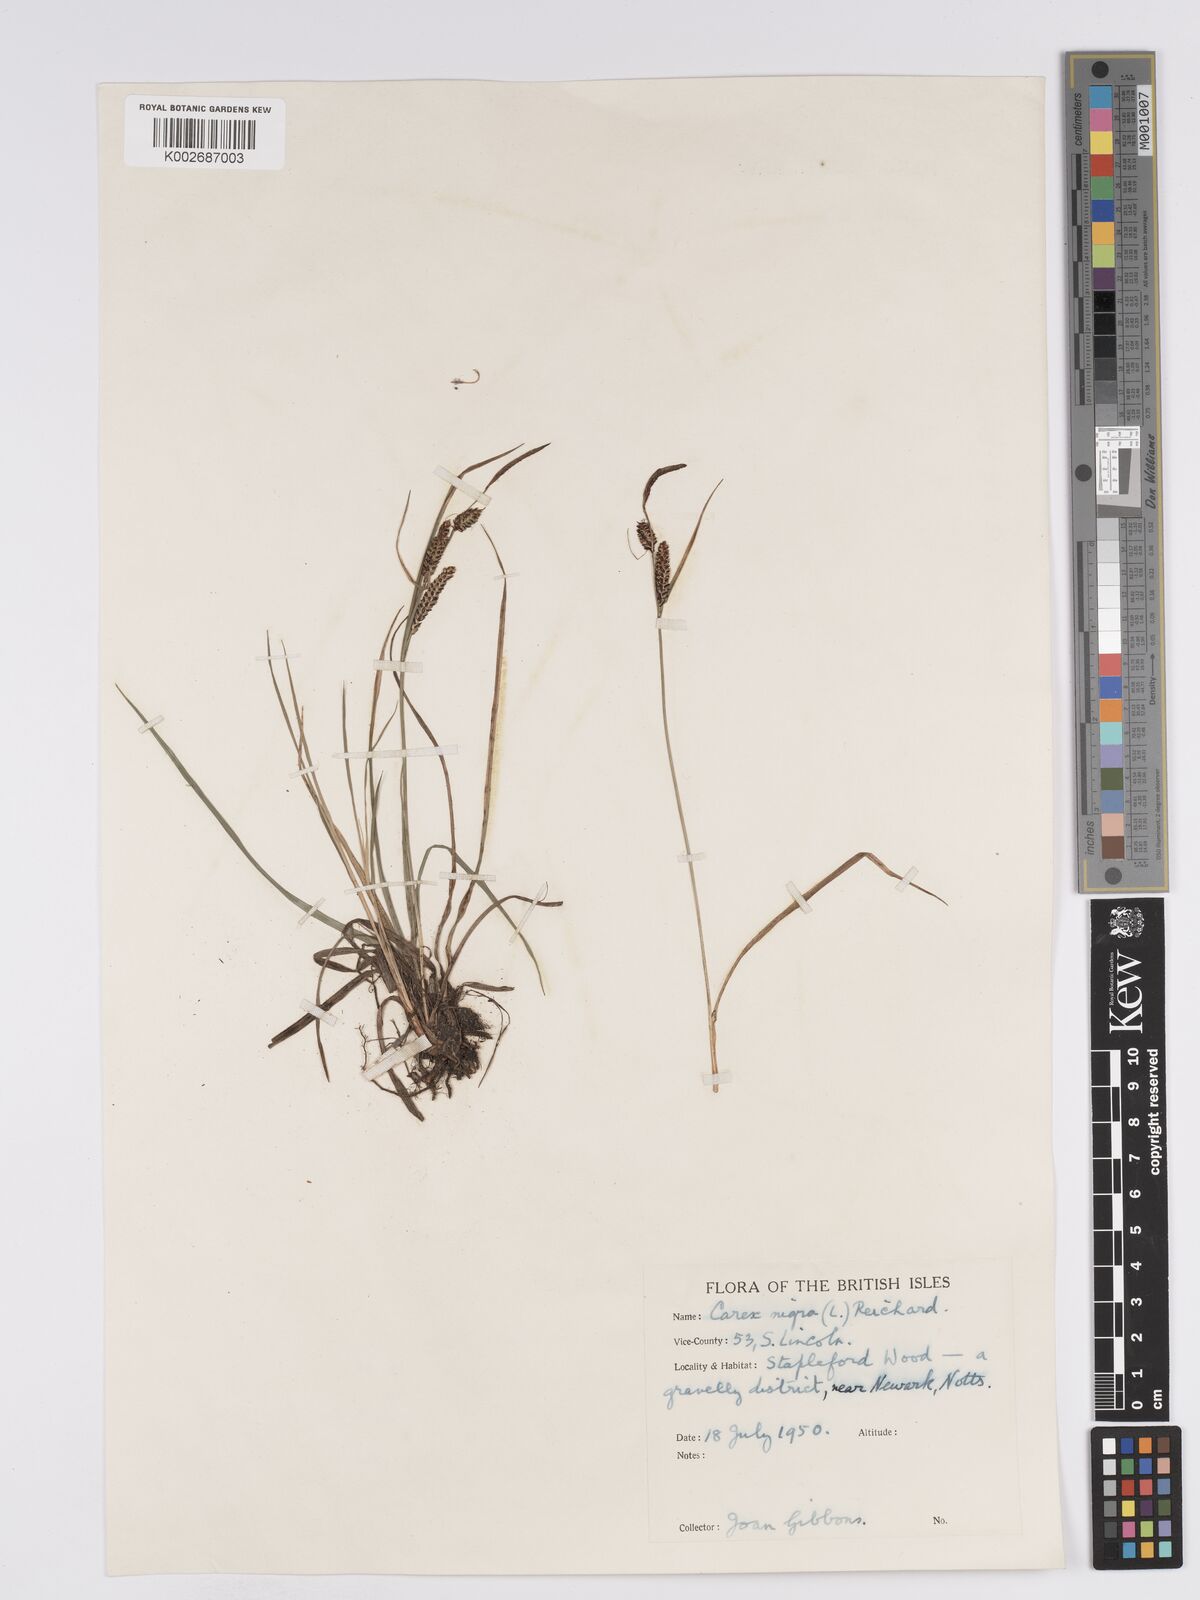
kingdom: Plantae
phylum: Tracheophyta
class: Liliopsida
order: Poales
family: Cyperaceae
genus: Carex
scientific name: Carex nigra
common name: Common sedge
